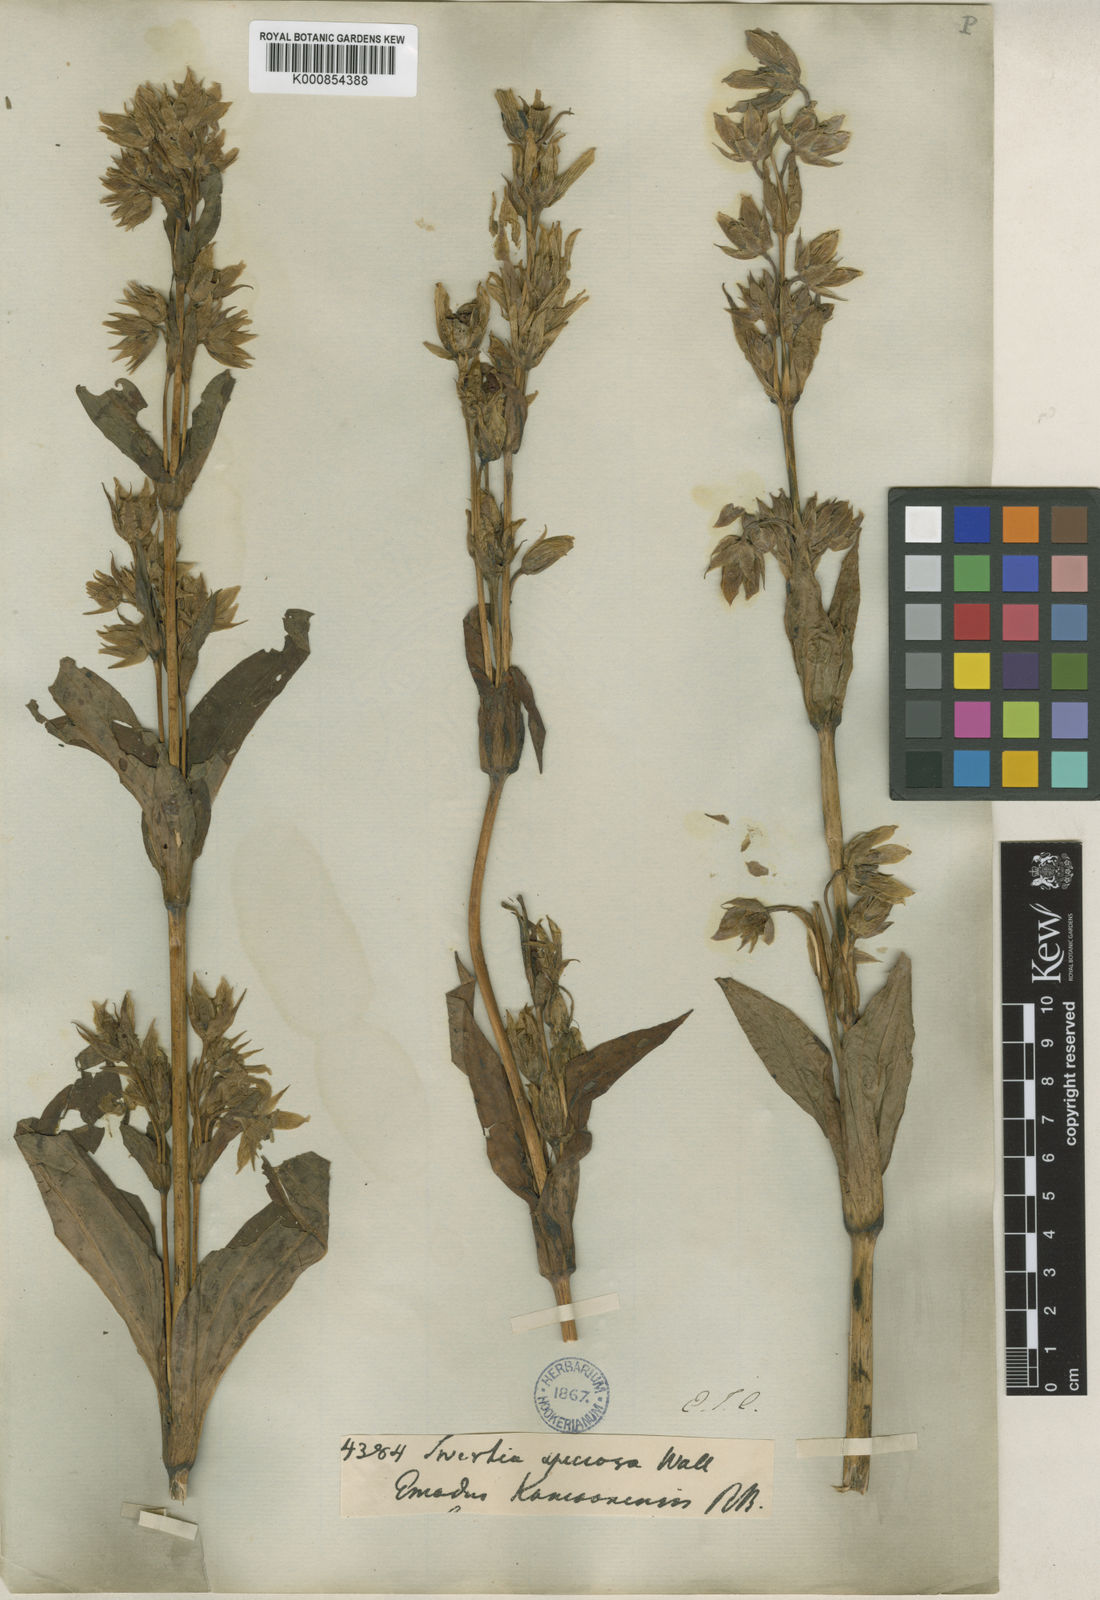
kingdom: Plantae
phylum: Tracheophyta
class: Magnoliopsida
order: Gentianales
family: Gentianaceae
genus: Swertia
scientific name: Swertia
